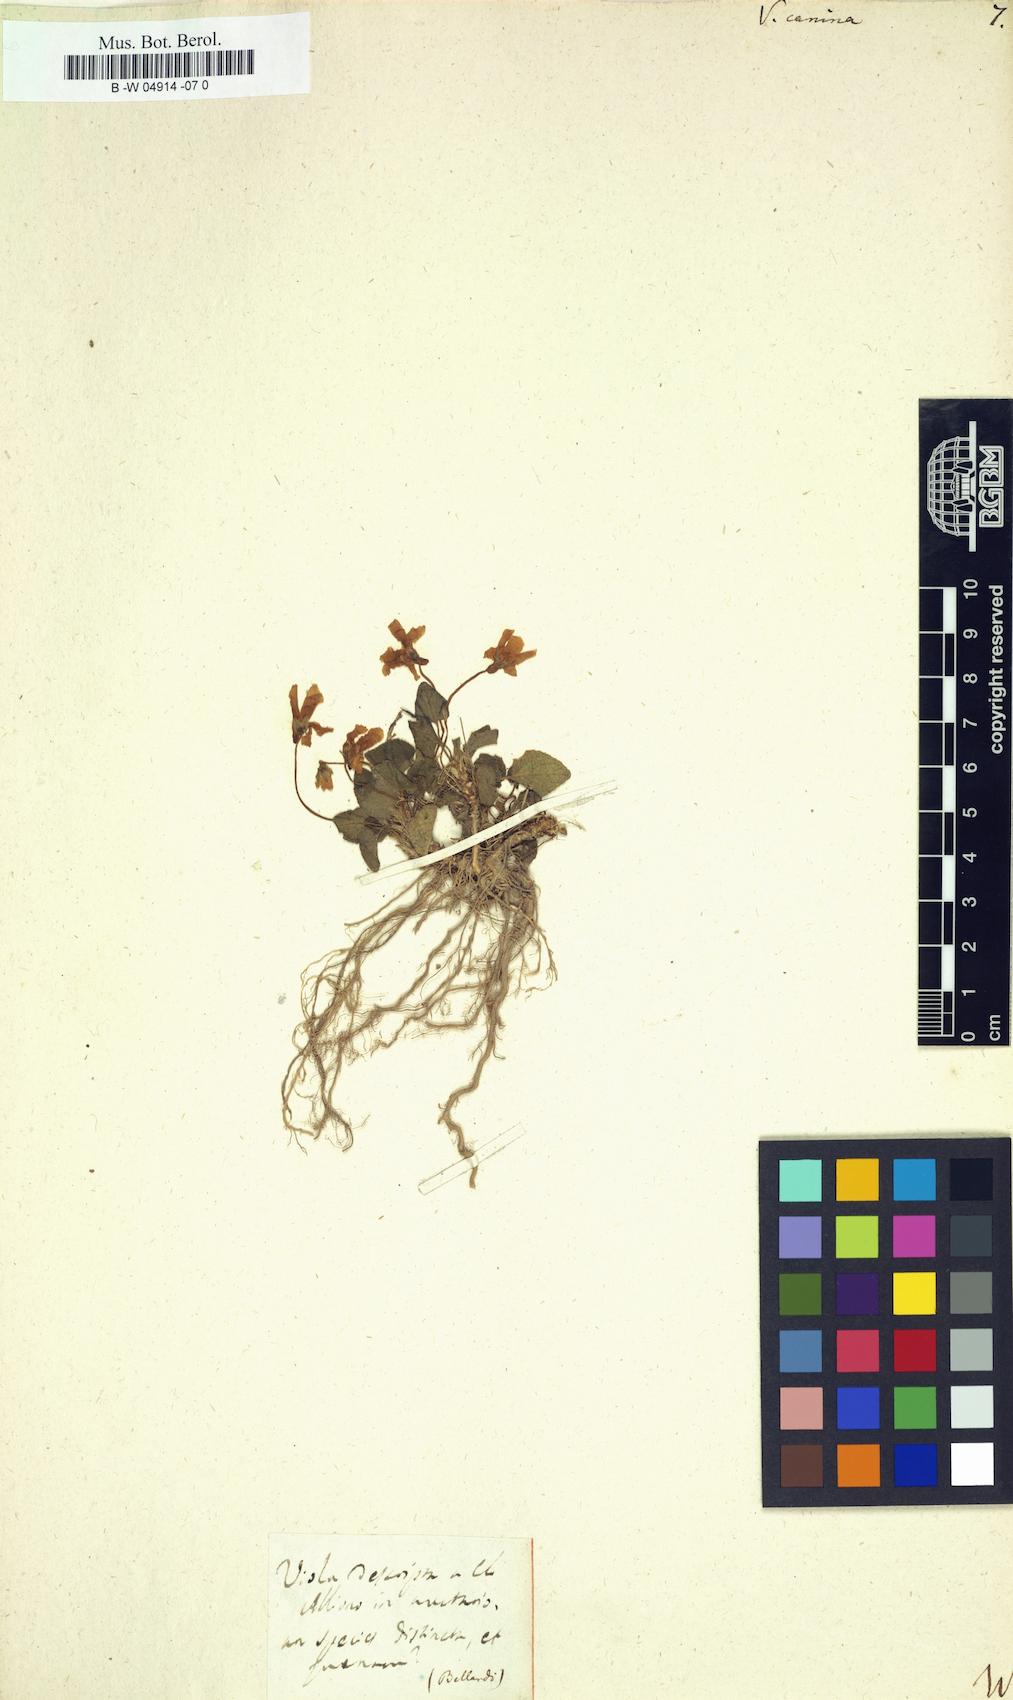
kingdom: Plantae
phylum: Tracheophyta
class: Magnoliopsida
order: Malpighiales
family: Violaceae
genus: Viola
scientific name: Viola canina
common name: Heath dog-violet
